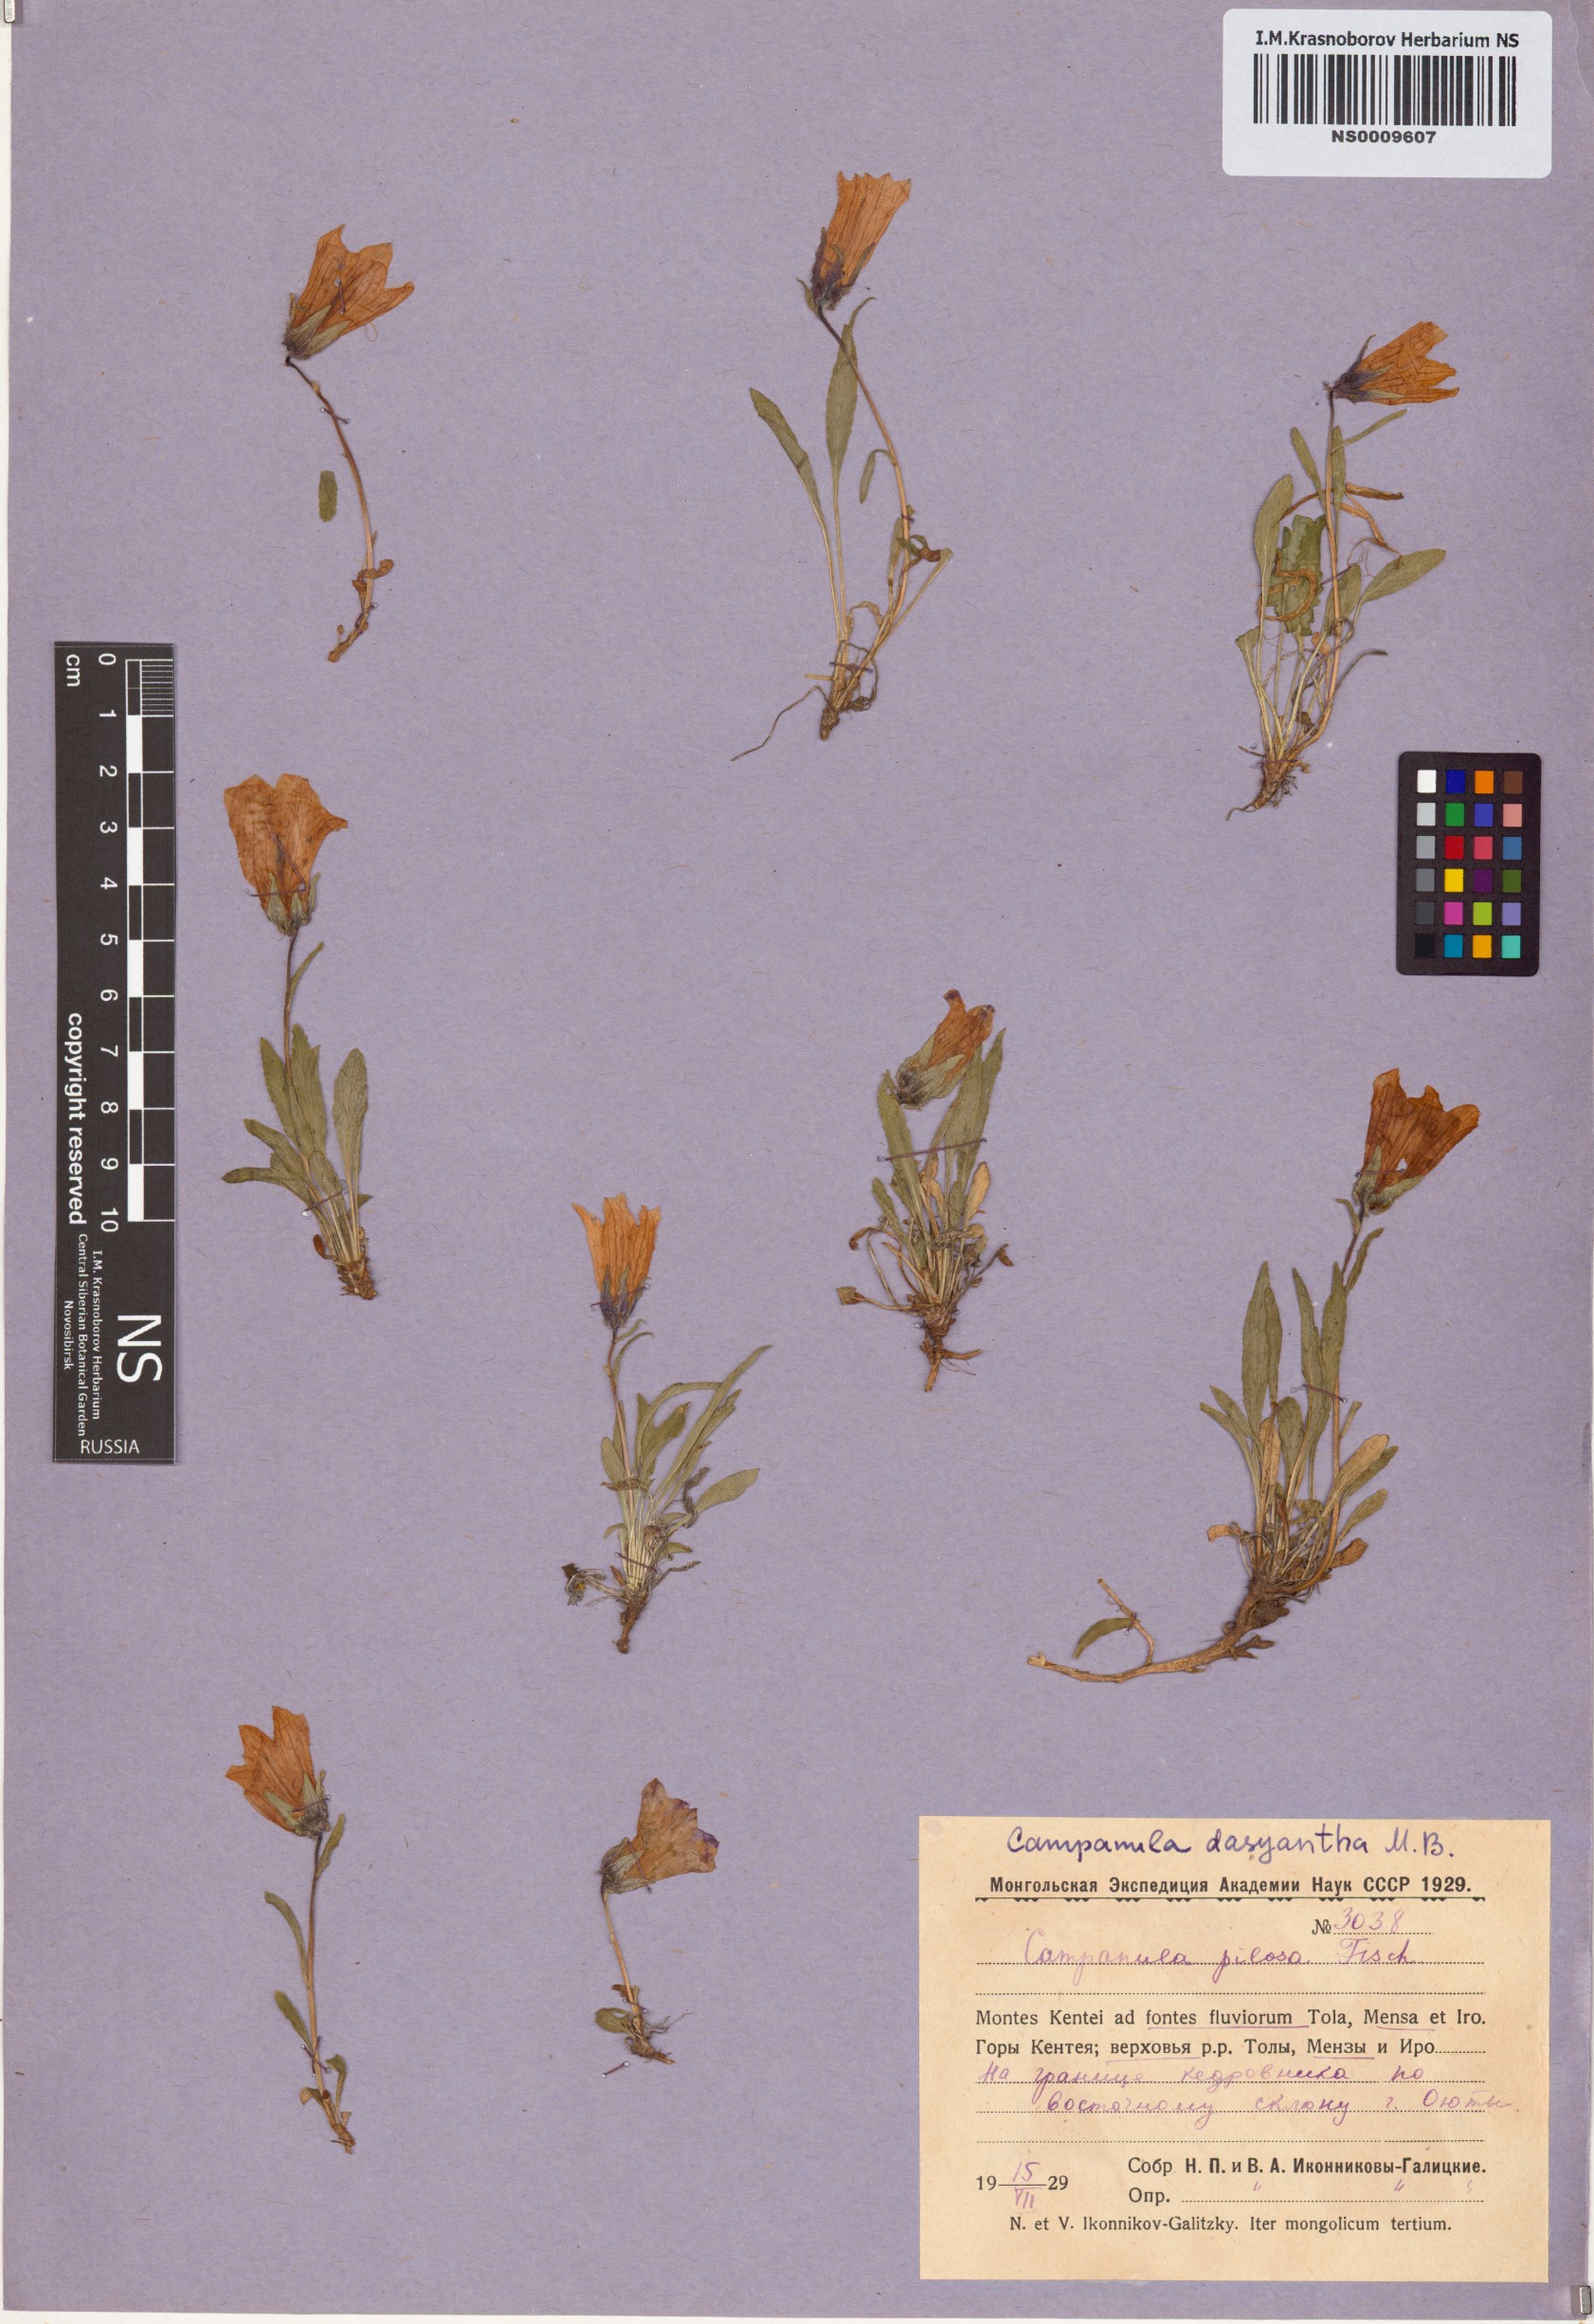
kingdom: Plantae
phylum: Tracheophyta
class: Magnoliopsida
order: Asterales
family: Campanulaceae
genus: Campanula
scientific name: Campanula dasyantha
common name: Hairyflower bellflower
